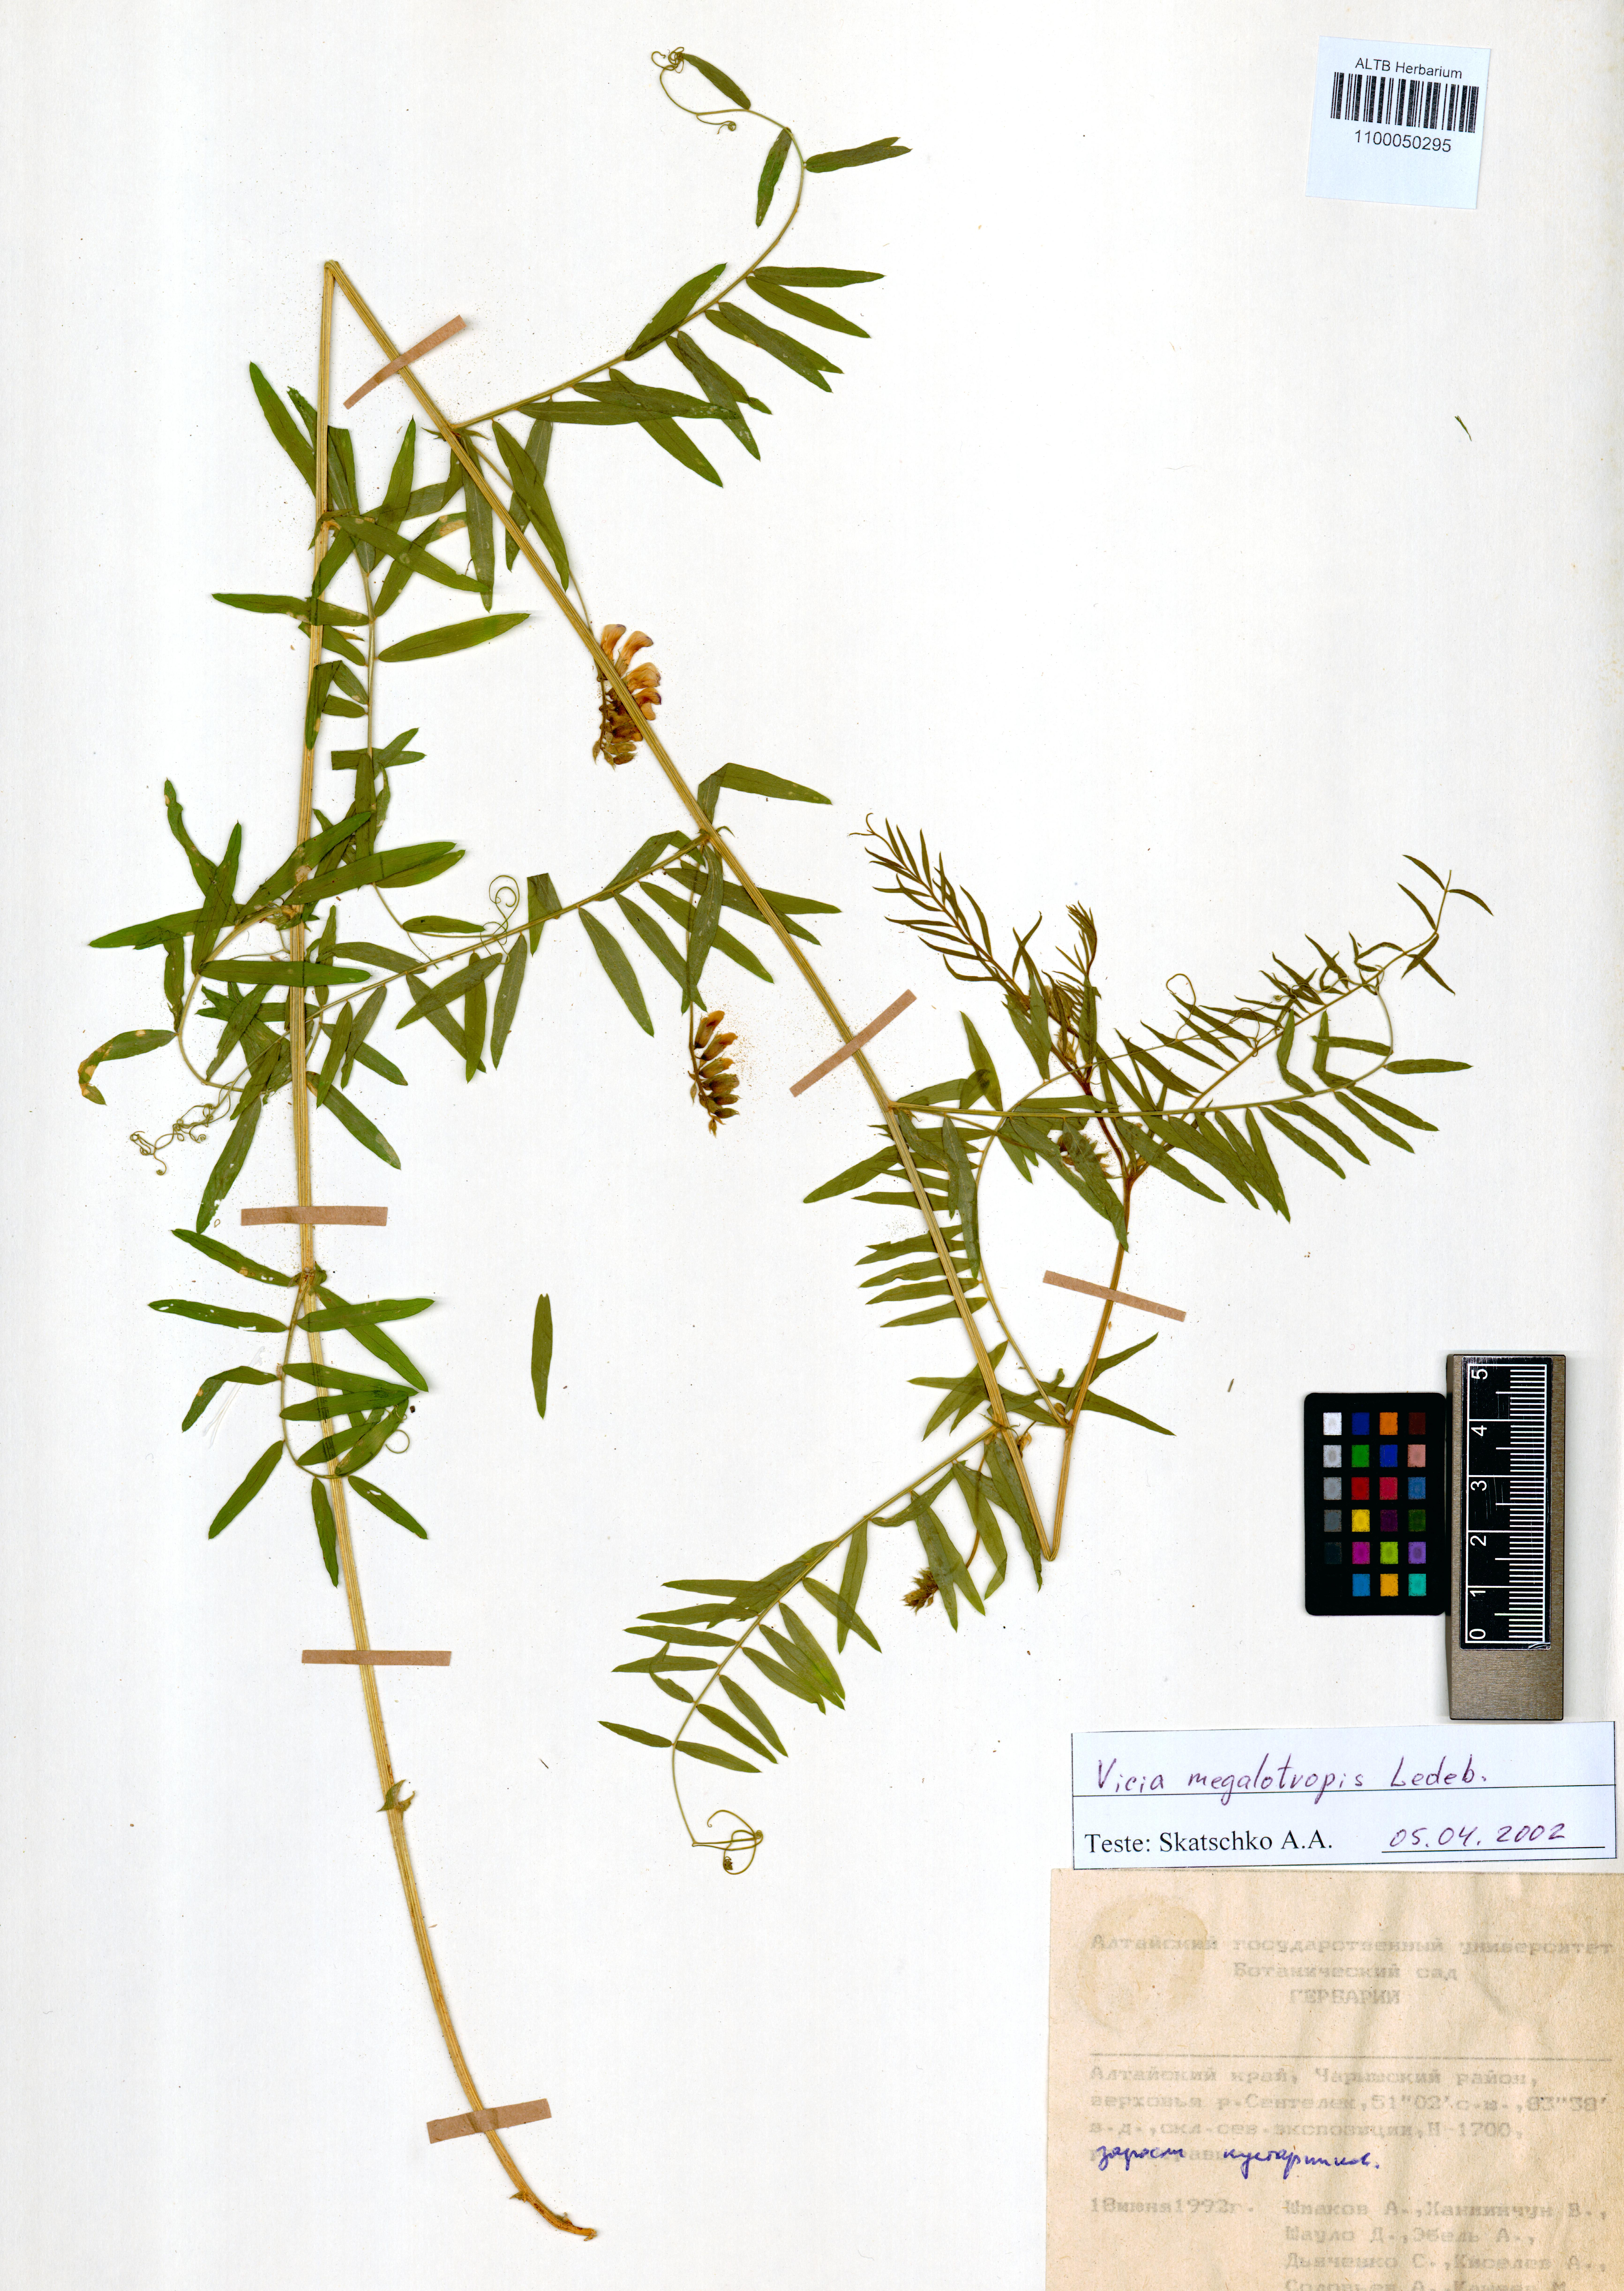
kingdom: Plantae
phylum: Tracheophyta
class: Magnoliopsida
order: Fabales
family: Fabaceae
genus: Vicia
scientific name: Vicia megalotropis
